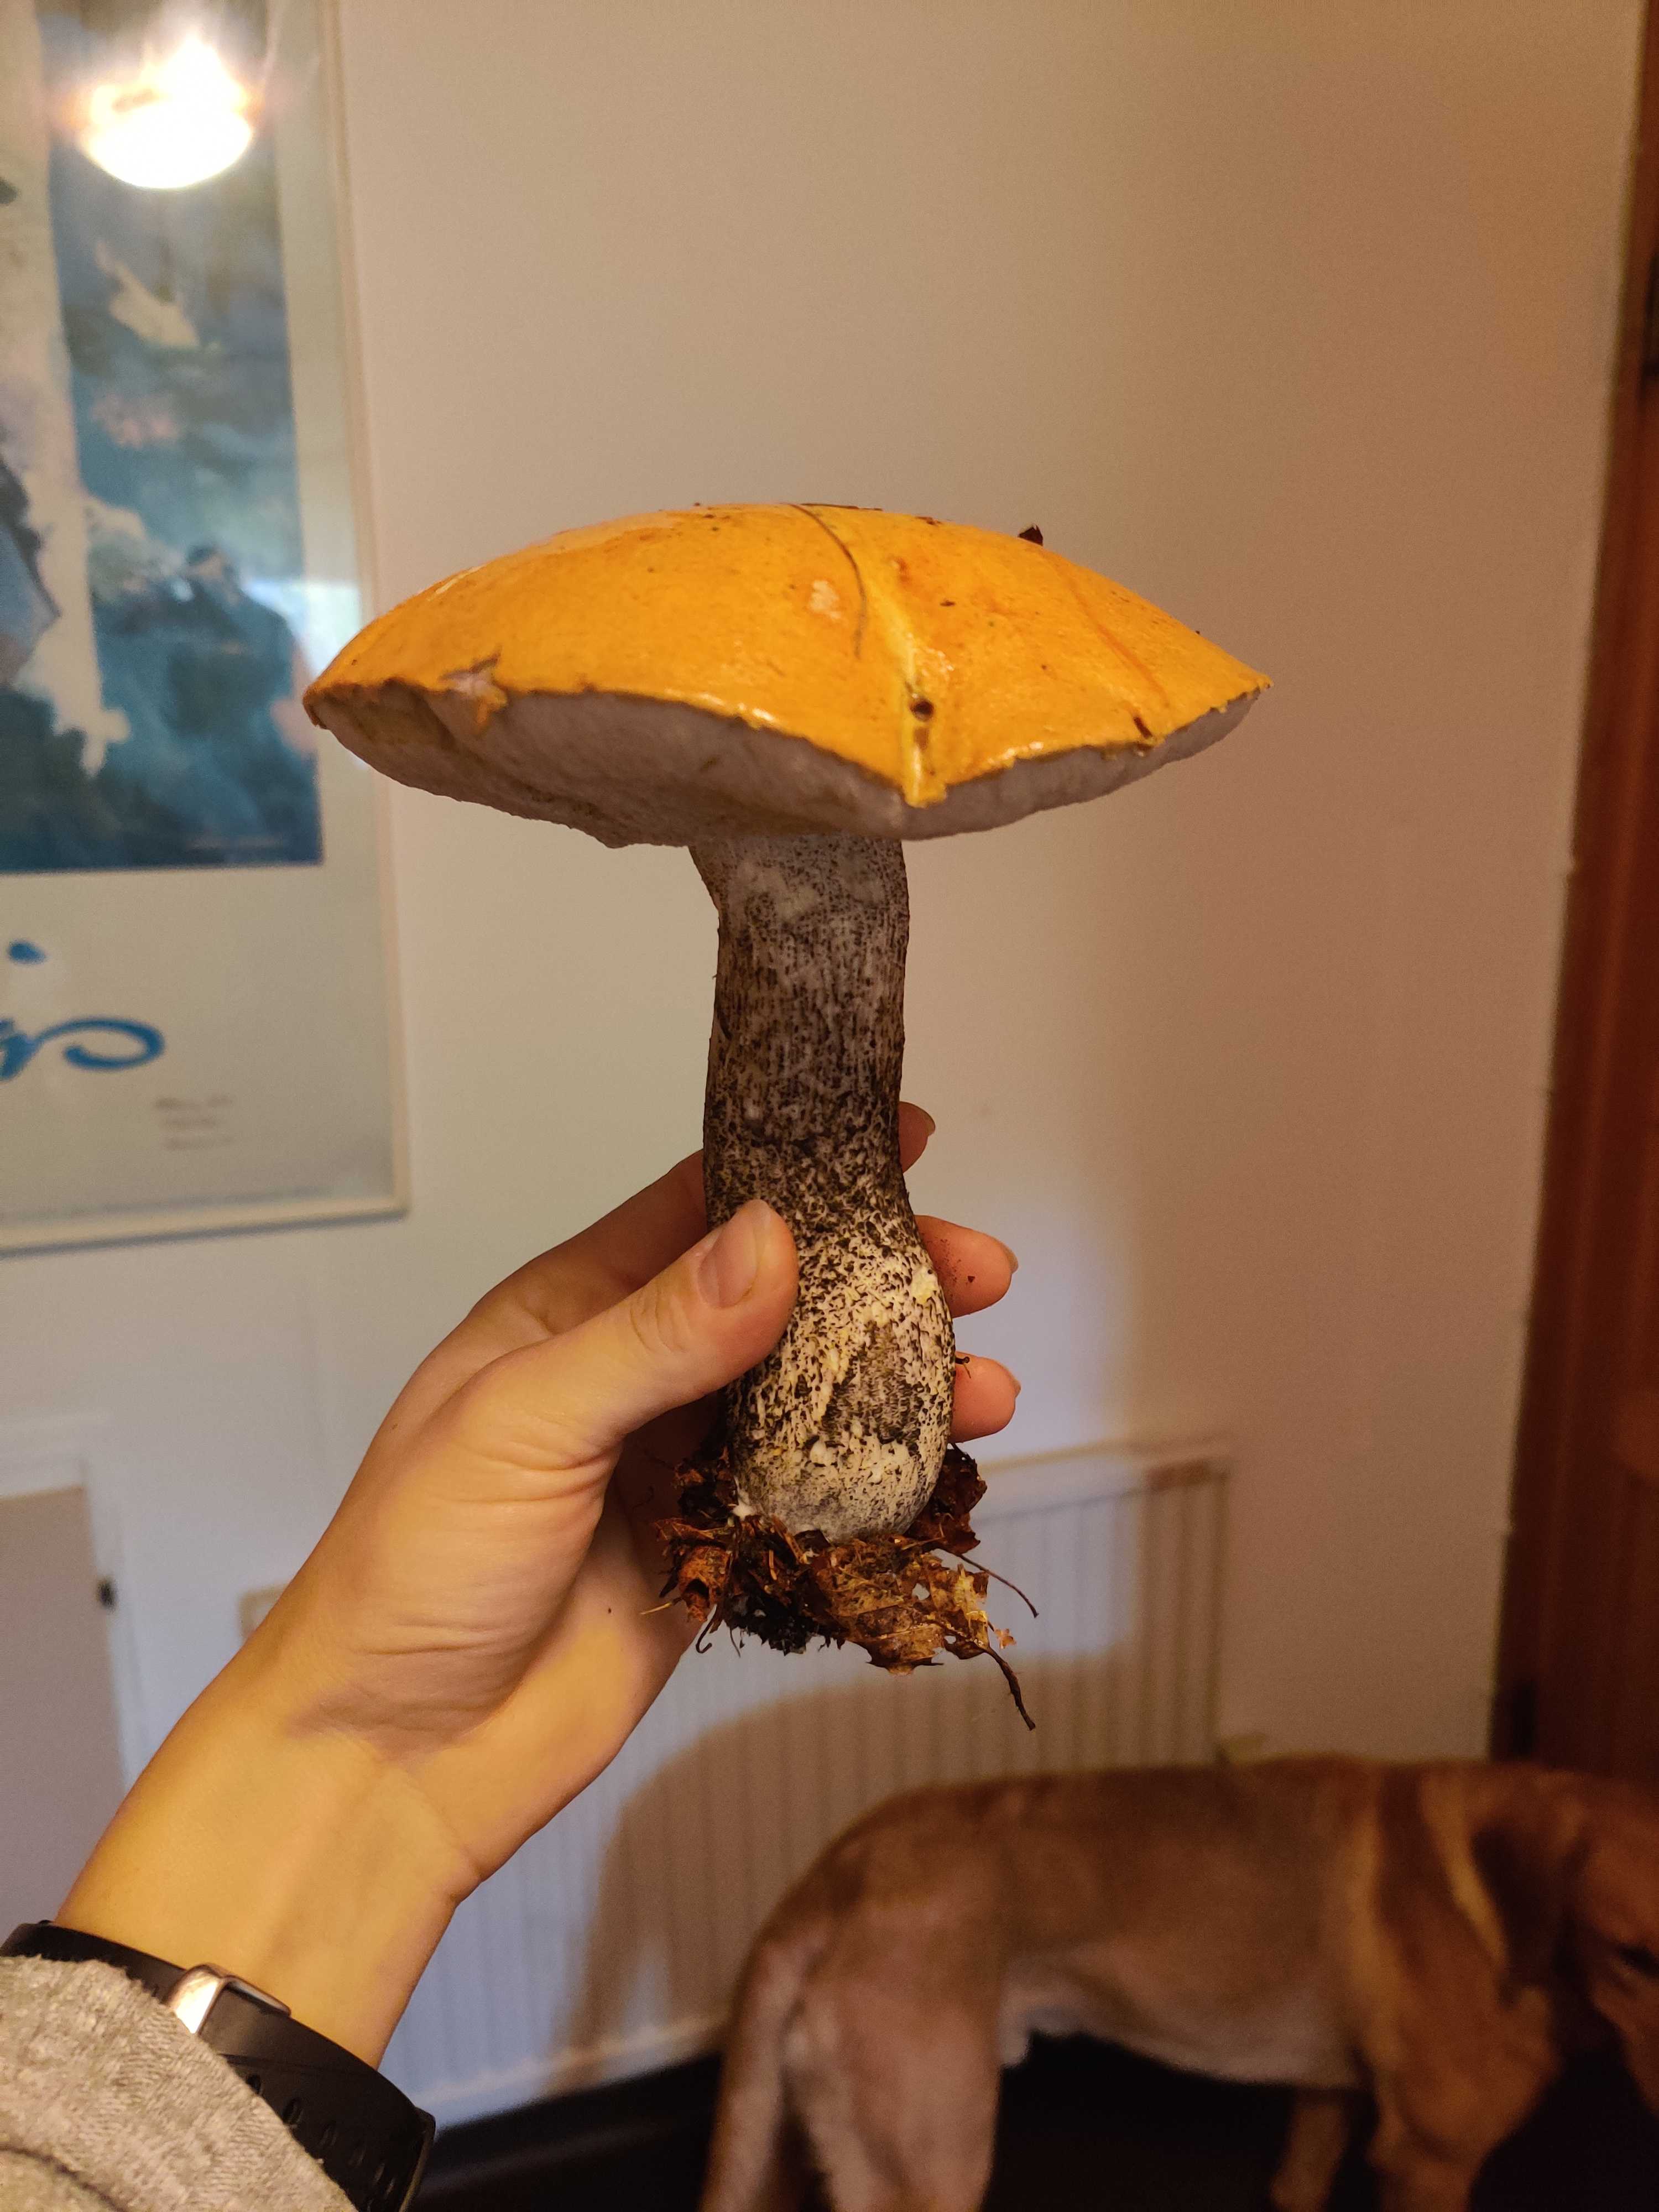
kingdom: Fungi
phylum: Basidiomycota
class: Agaricomycetes
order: Boletales
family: Boletaceae
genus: Leccinum
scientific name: Leccinum versipelle
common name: orange skælrørhat
